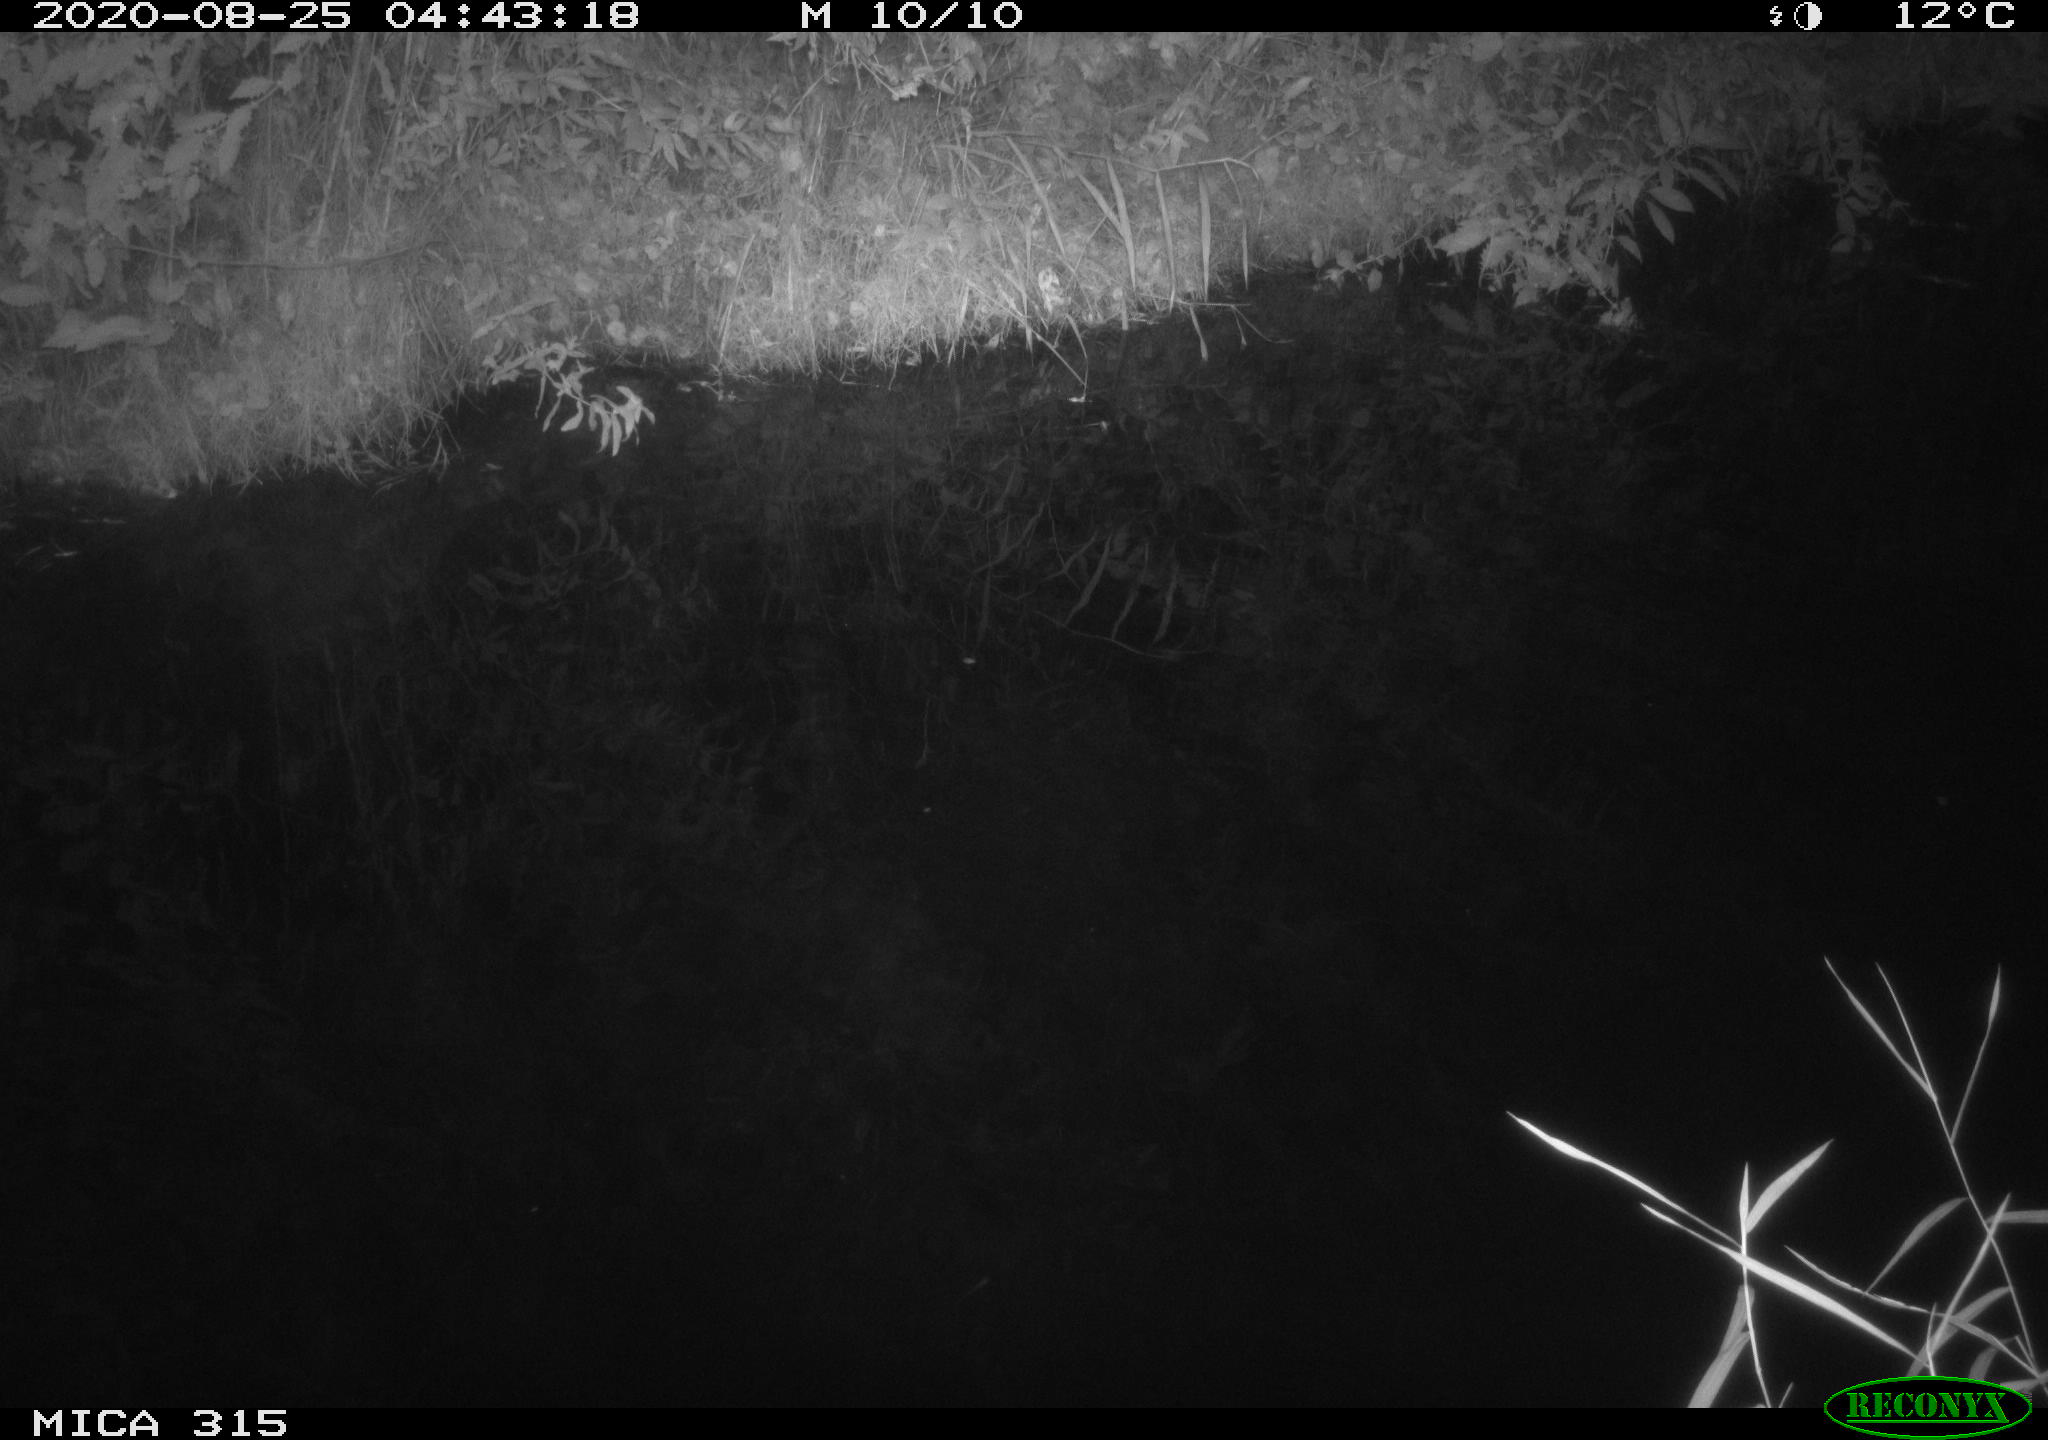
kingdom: Animalia
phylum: Chordata
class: Aves
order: Anseriformes
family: Anatidae
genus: Anas
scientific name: Anas platyrhynchos
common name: Mallard
